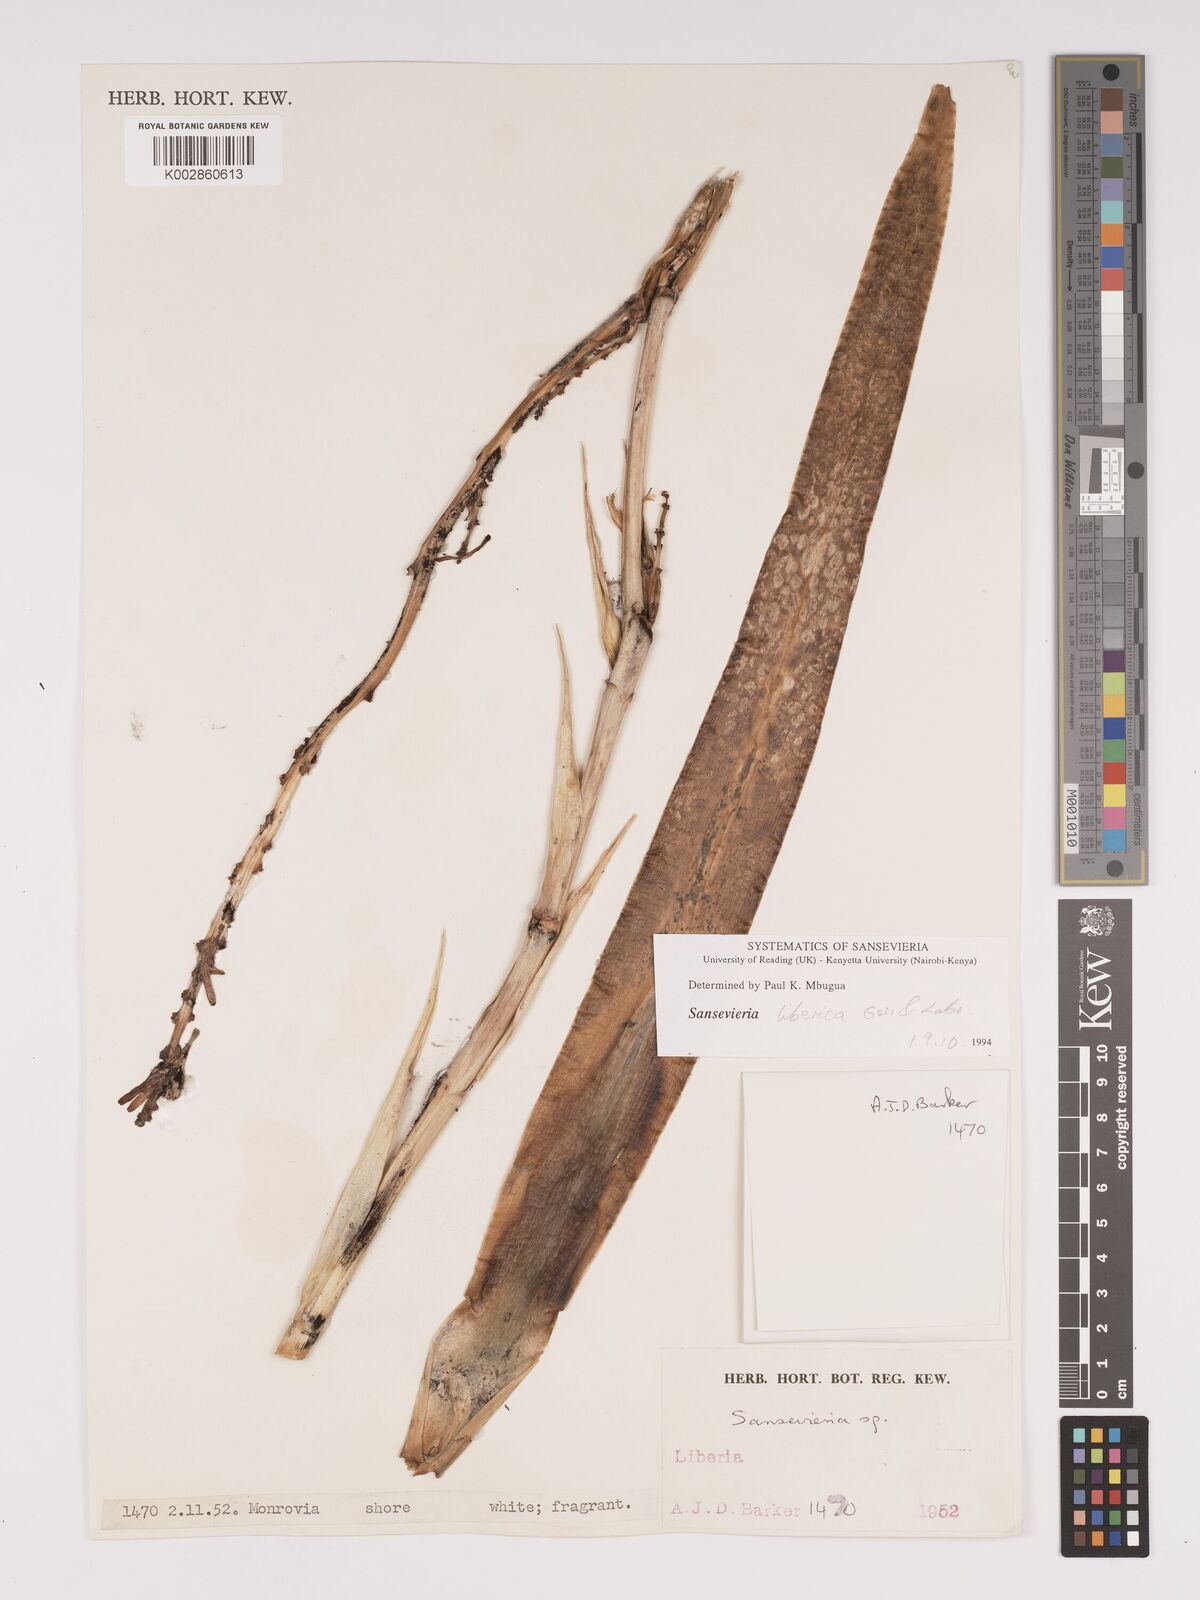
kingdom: Plantae
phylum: Tracheophyta
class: Liliopsida
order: Asparagales
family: Asparagaceae
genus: Dracaena
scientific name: Dracaena liberica
